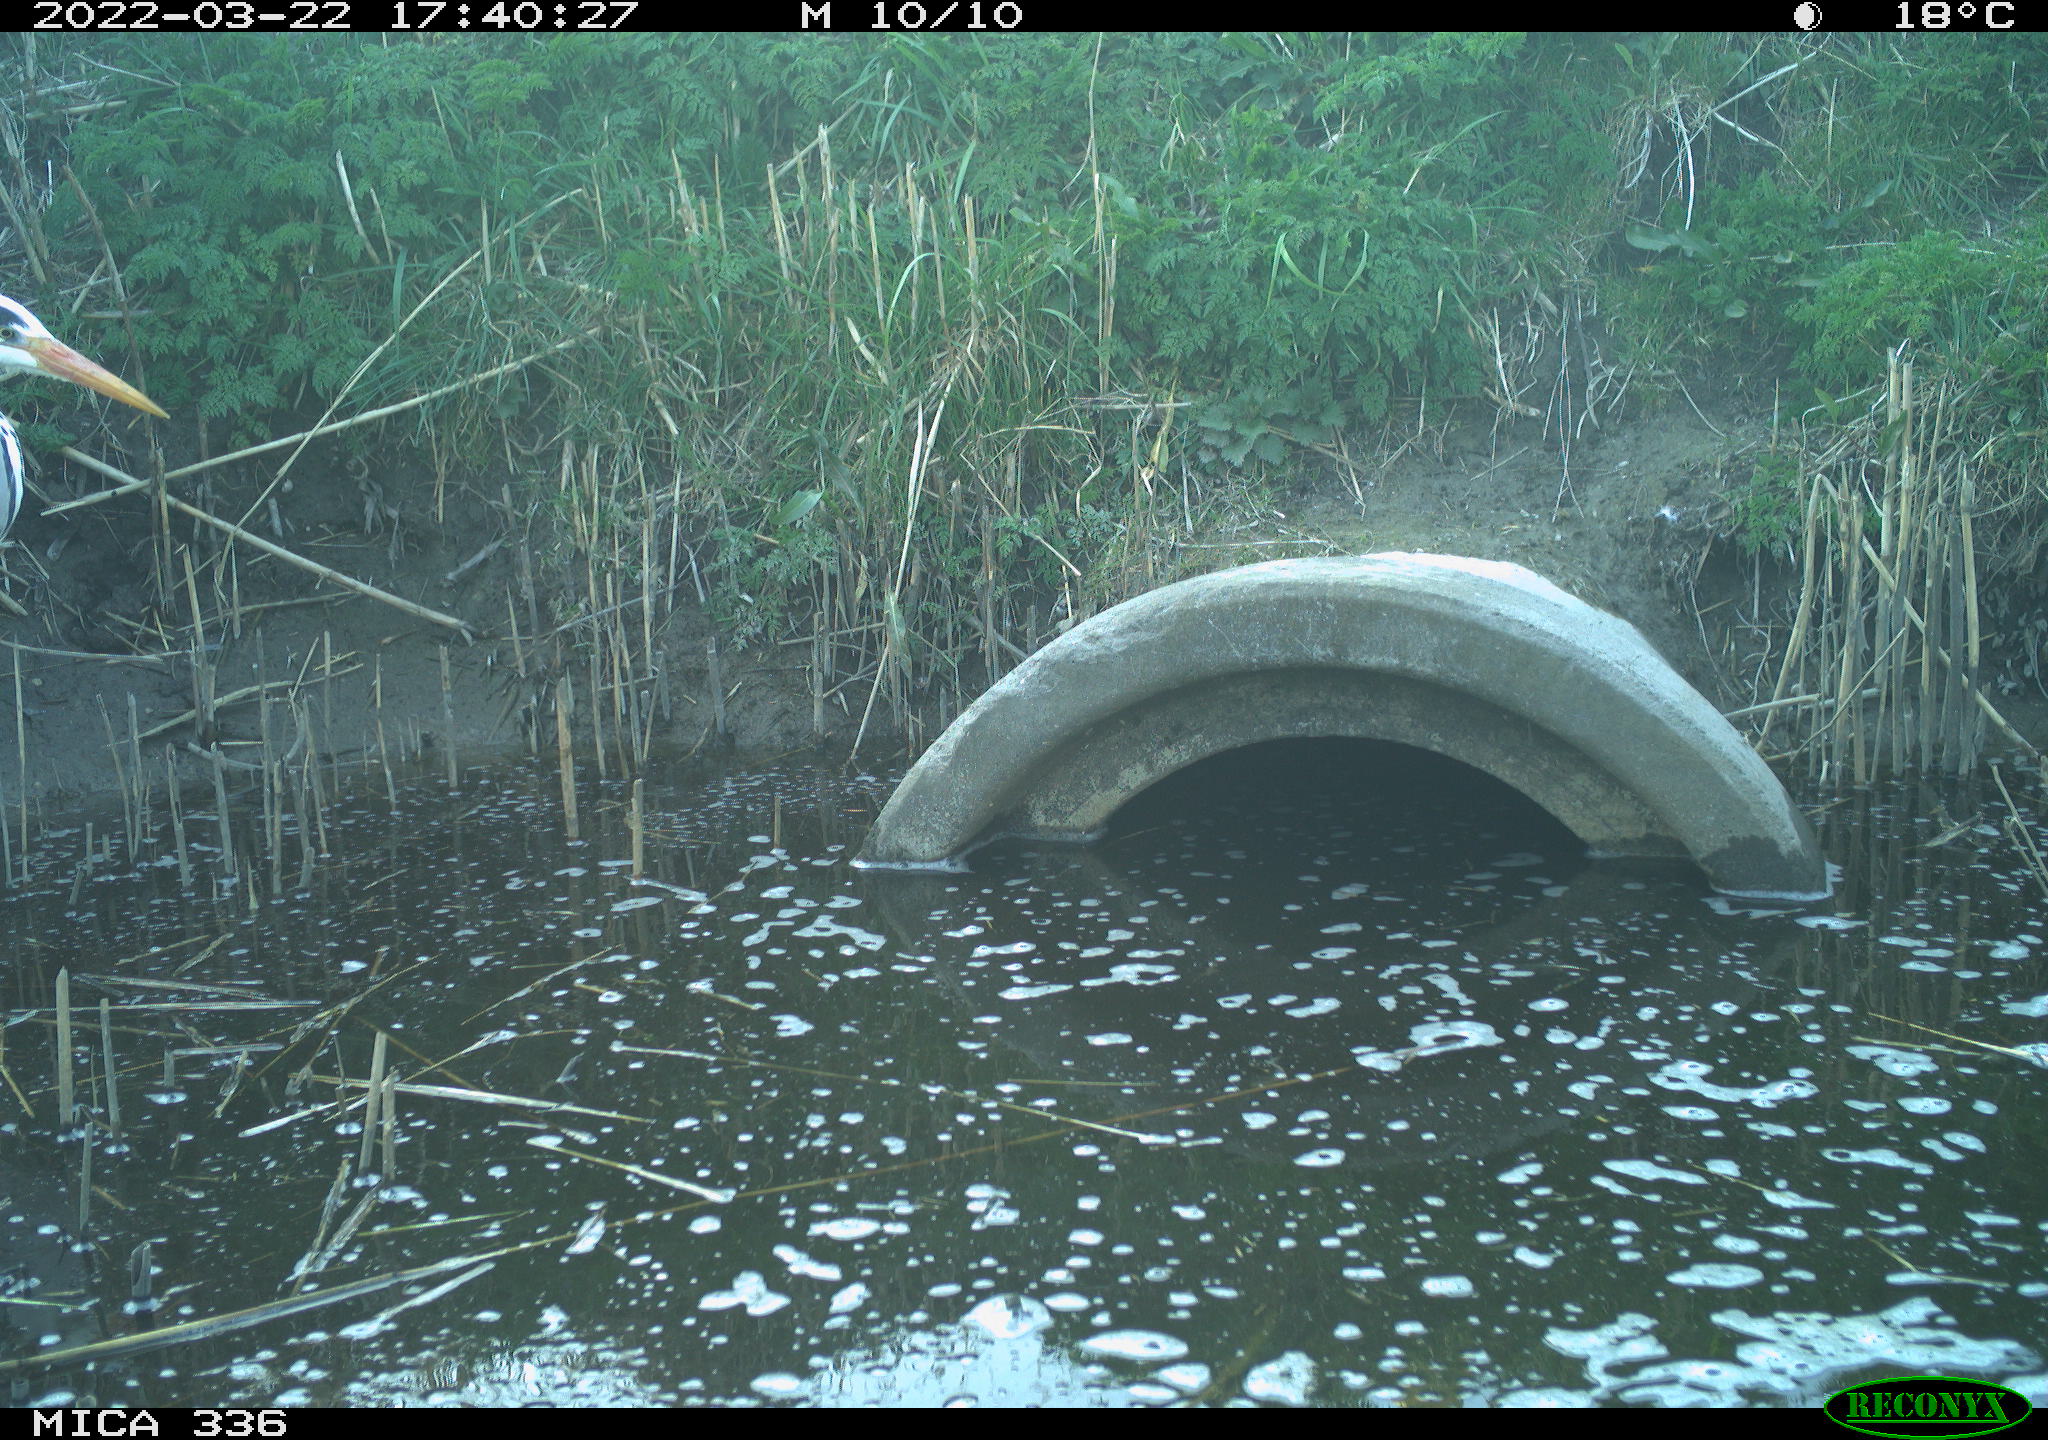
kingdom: Animalia
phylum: Chordata
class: Aves
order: Pelecaniformes
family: Ardeidae
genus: Ardea
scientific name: Ardea cinerea
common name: Grey heron
